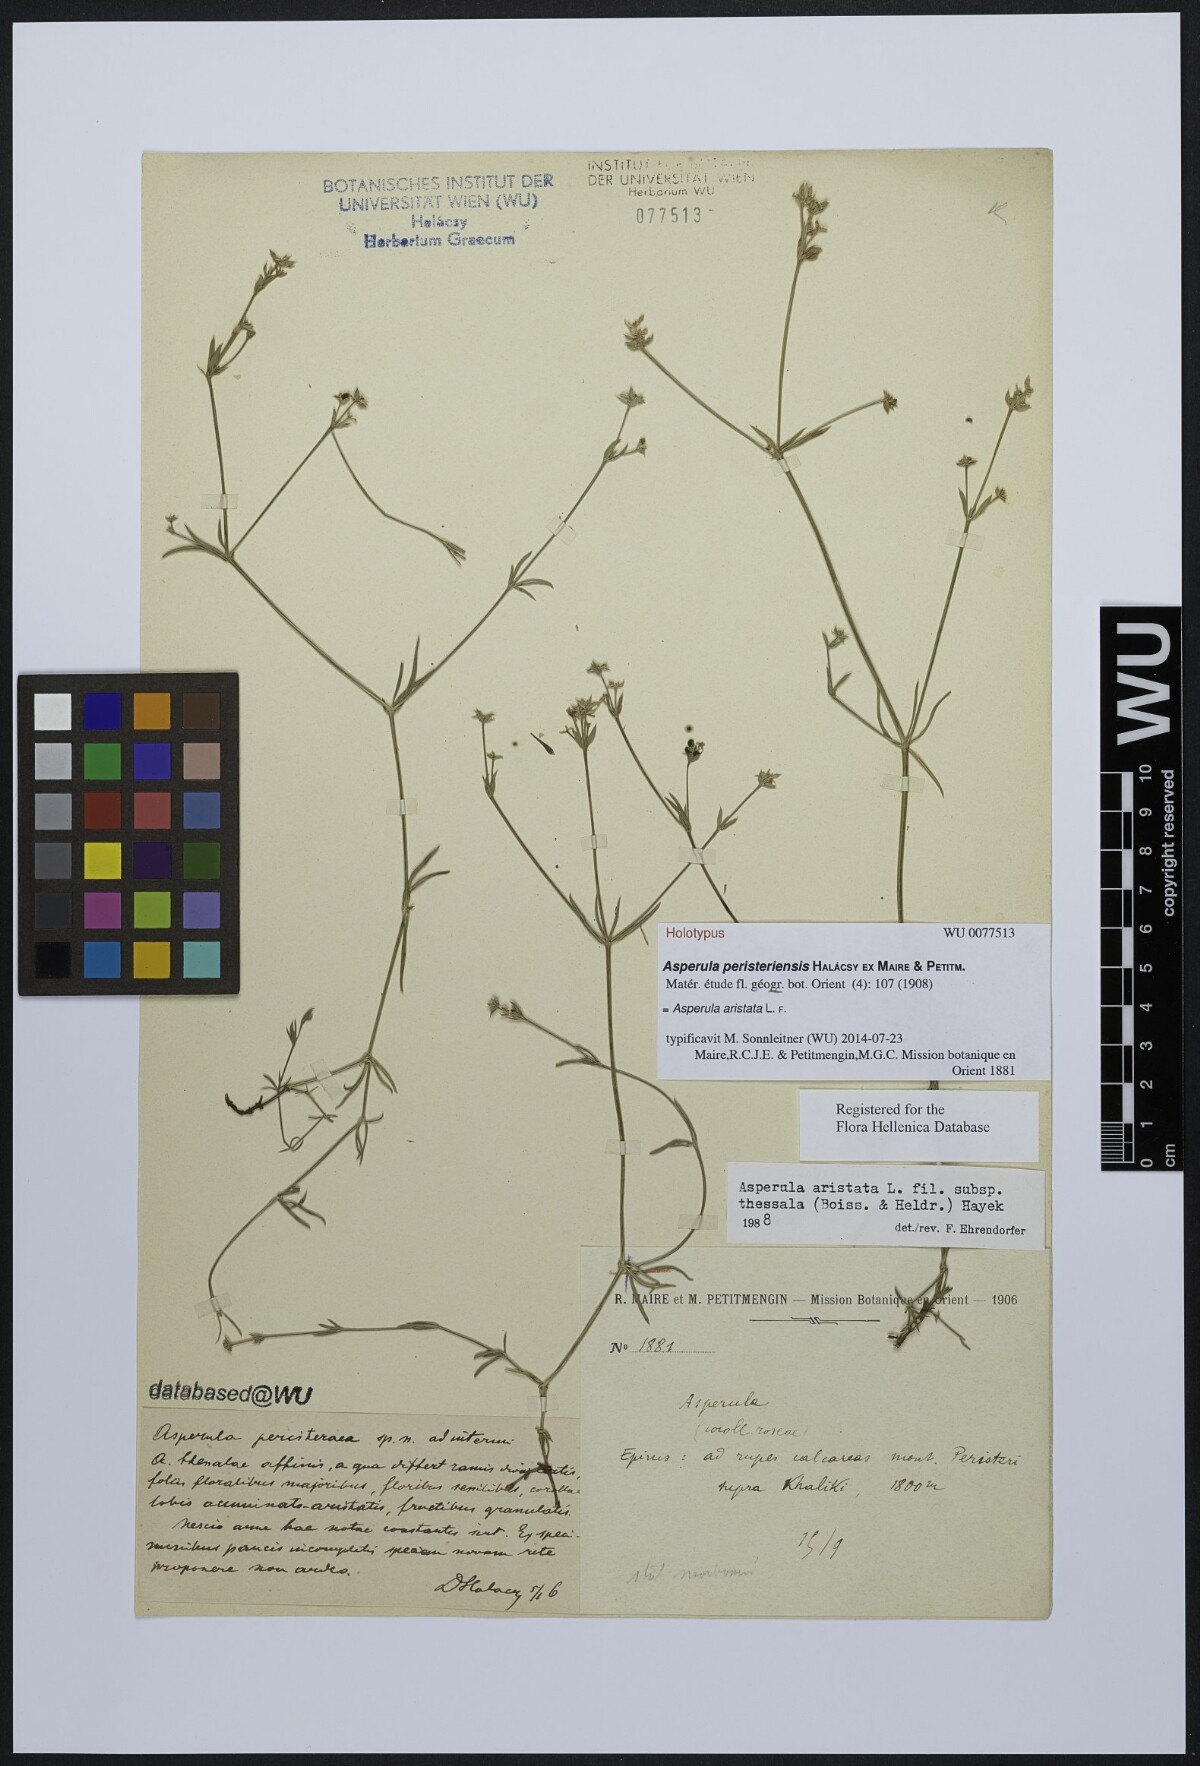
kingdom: Plantae
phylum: Tracheophyta
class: Magnoliopsida
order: Gentianales
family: Rubiaceae
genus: Cynanchica
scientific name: Cynanchica aristata
